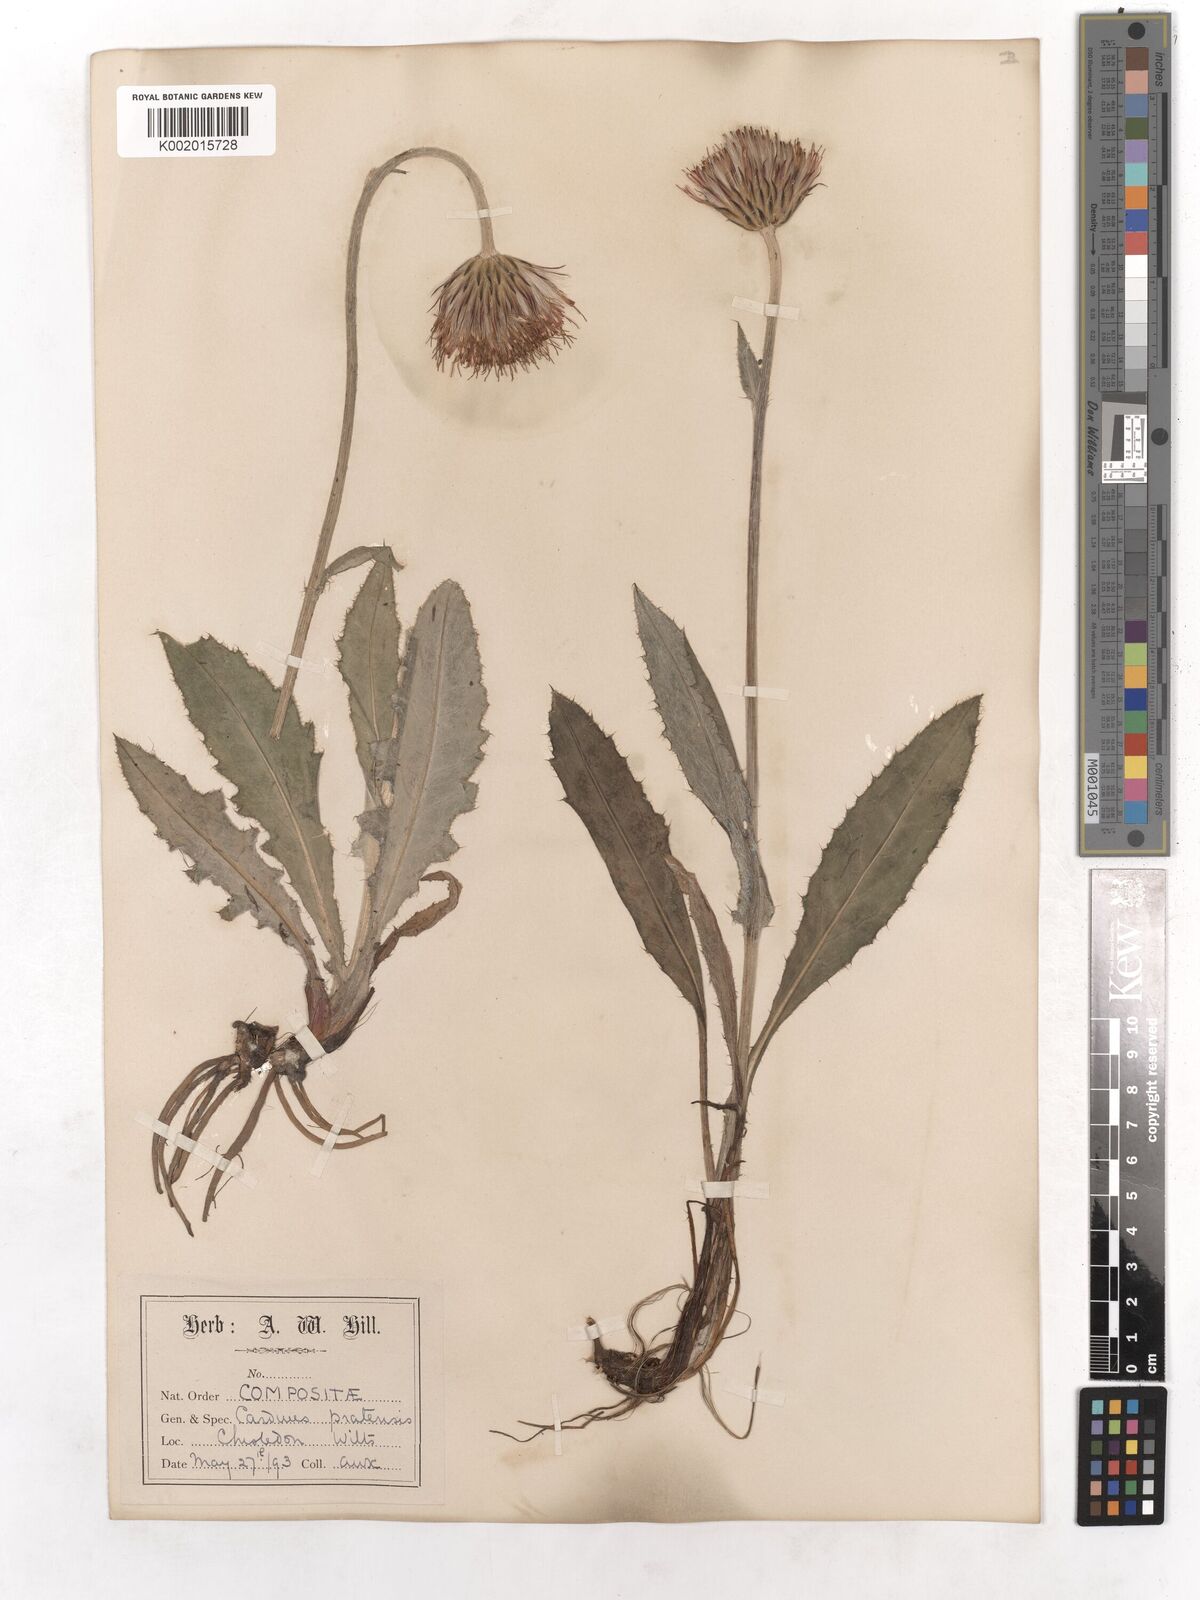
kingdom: Plantae
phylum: Tracheophyta
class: Magnoliopsida
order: Asterales
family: Asteraceae
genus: Cirsium
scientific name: Cirsium dissectum
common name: Meadow thistle
